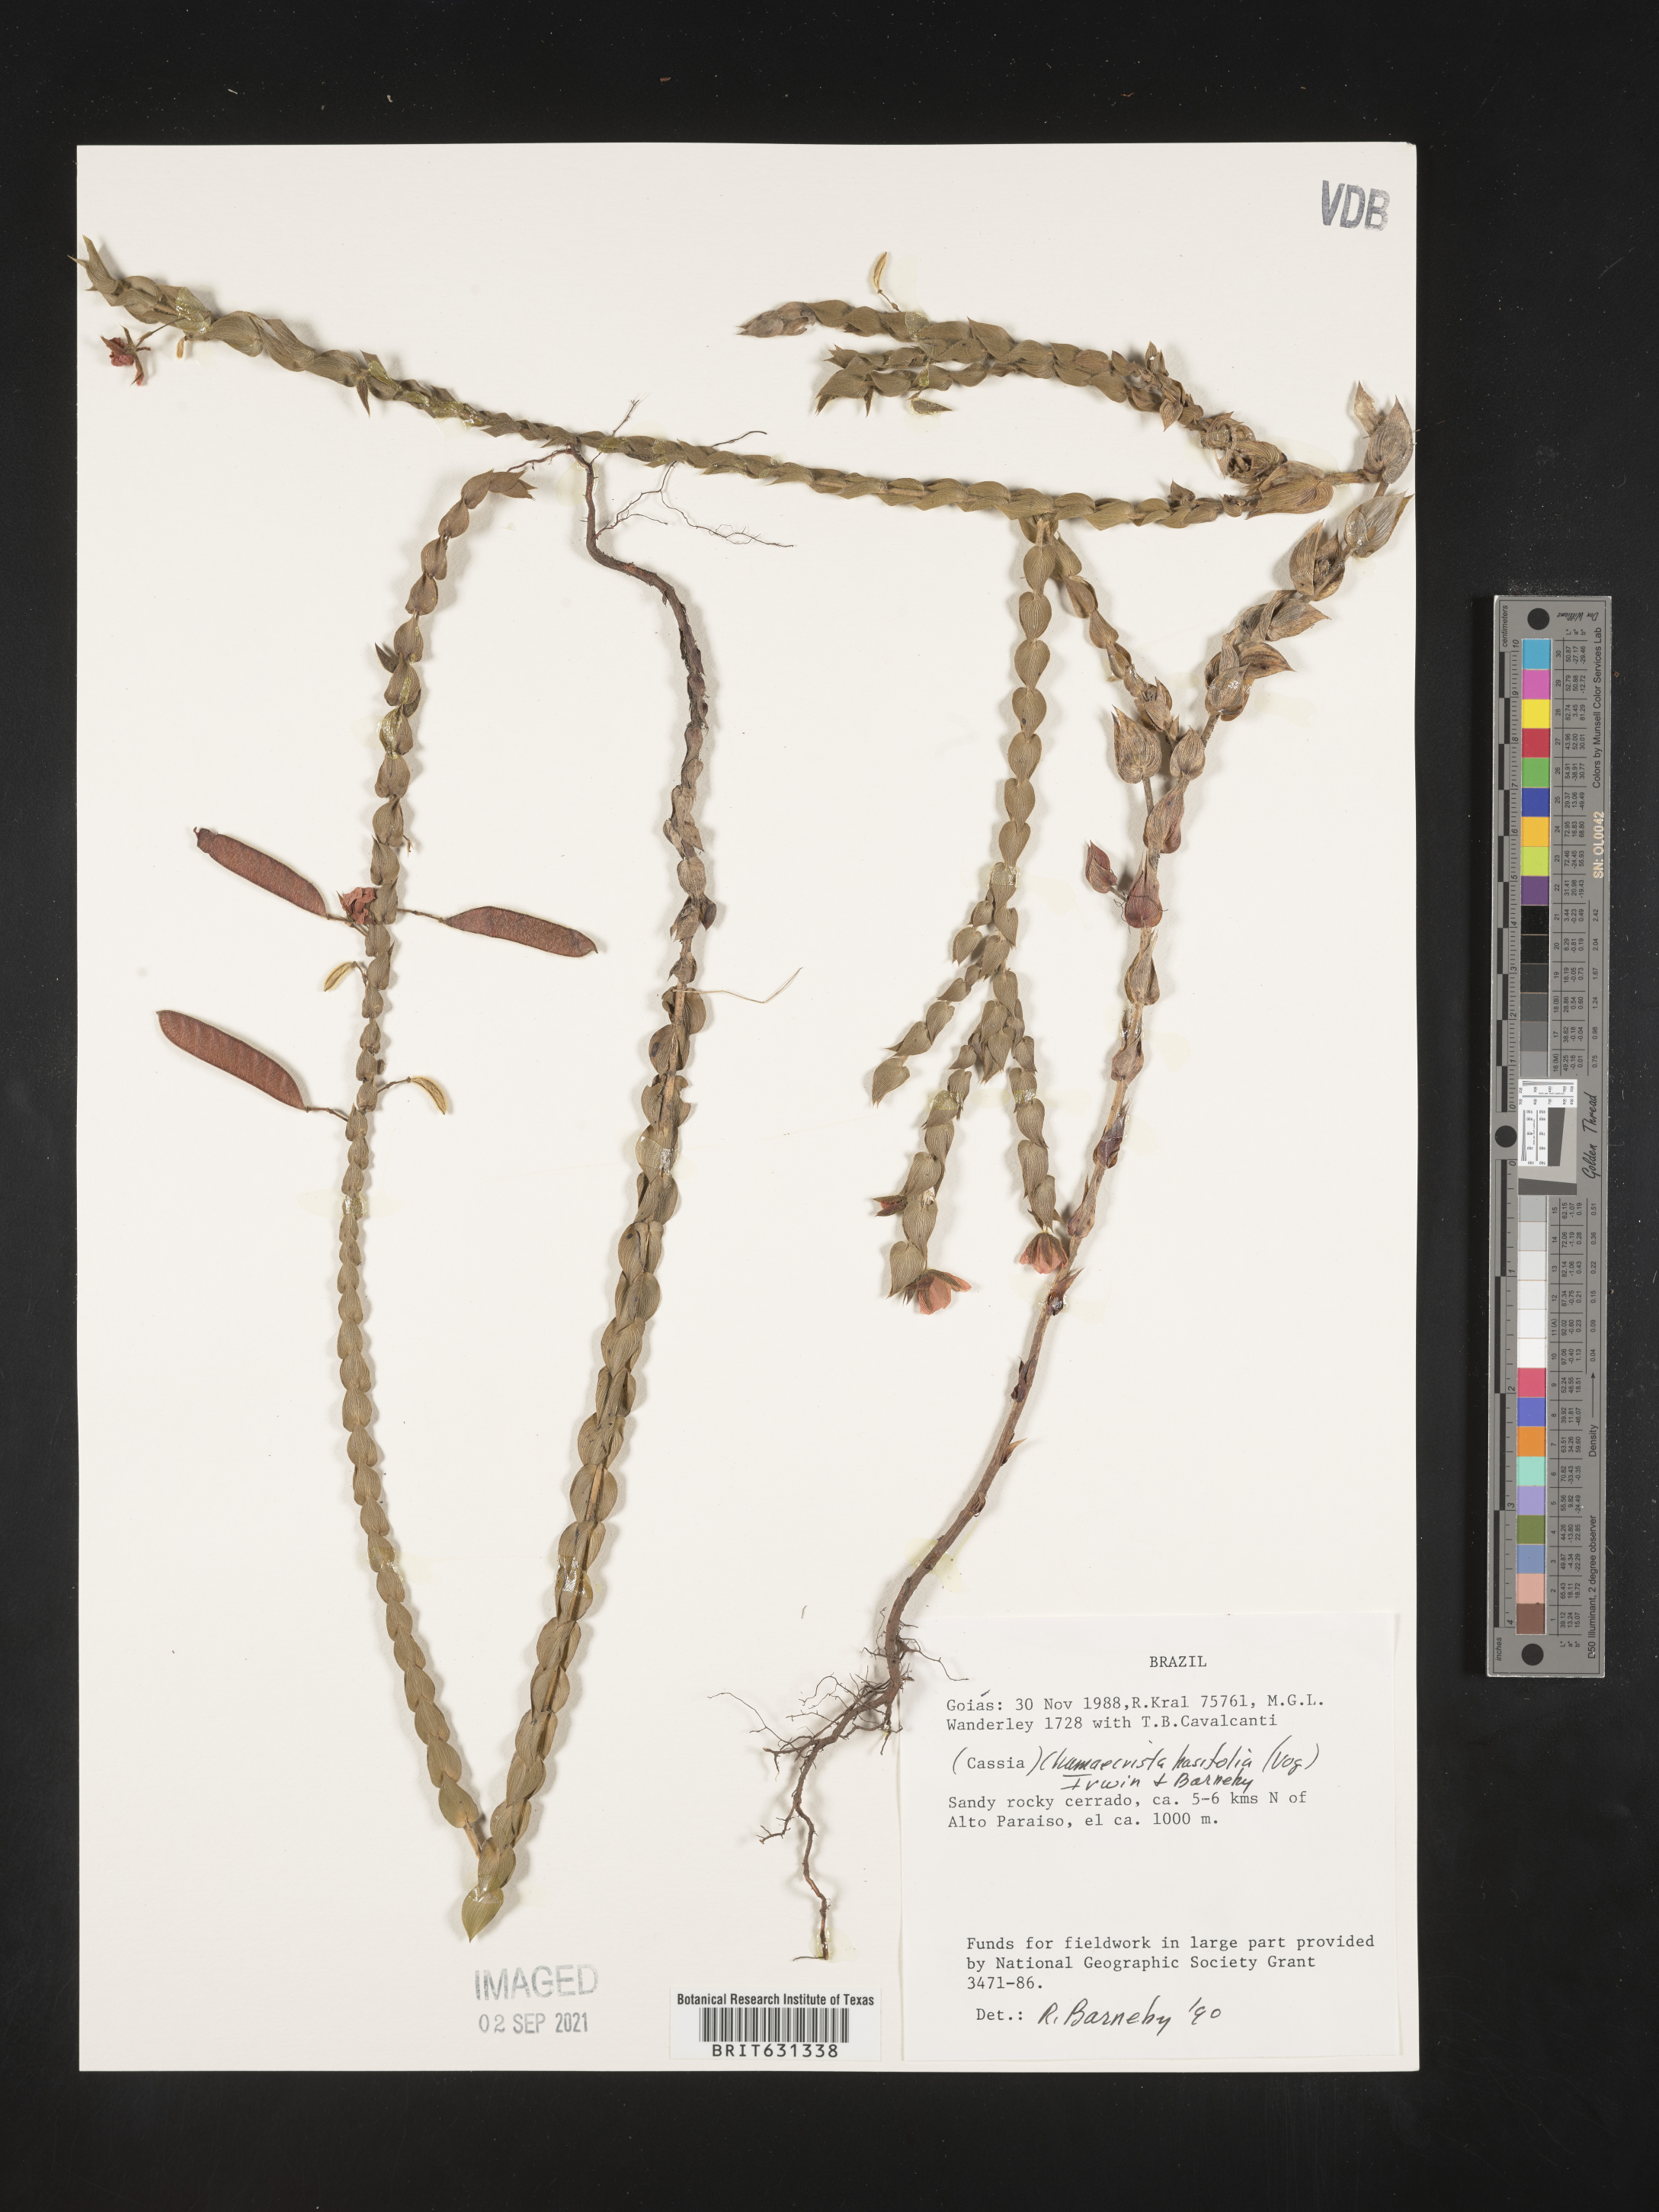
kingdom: Plantae
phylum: Tracheophyta
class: Magnoliopsida
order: Fabales
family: Fabaceae
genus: Chamaecrista
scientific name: Chamaecrista
